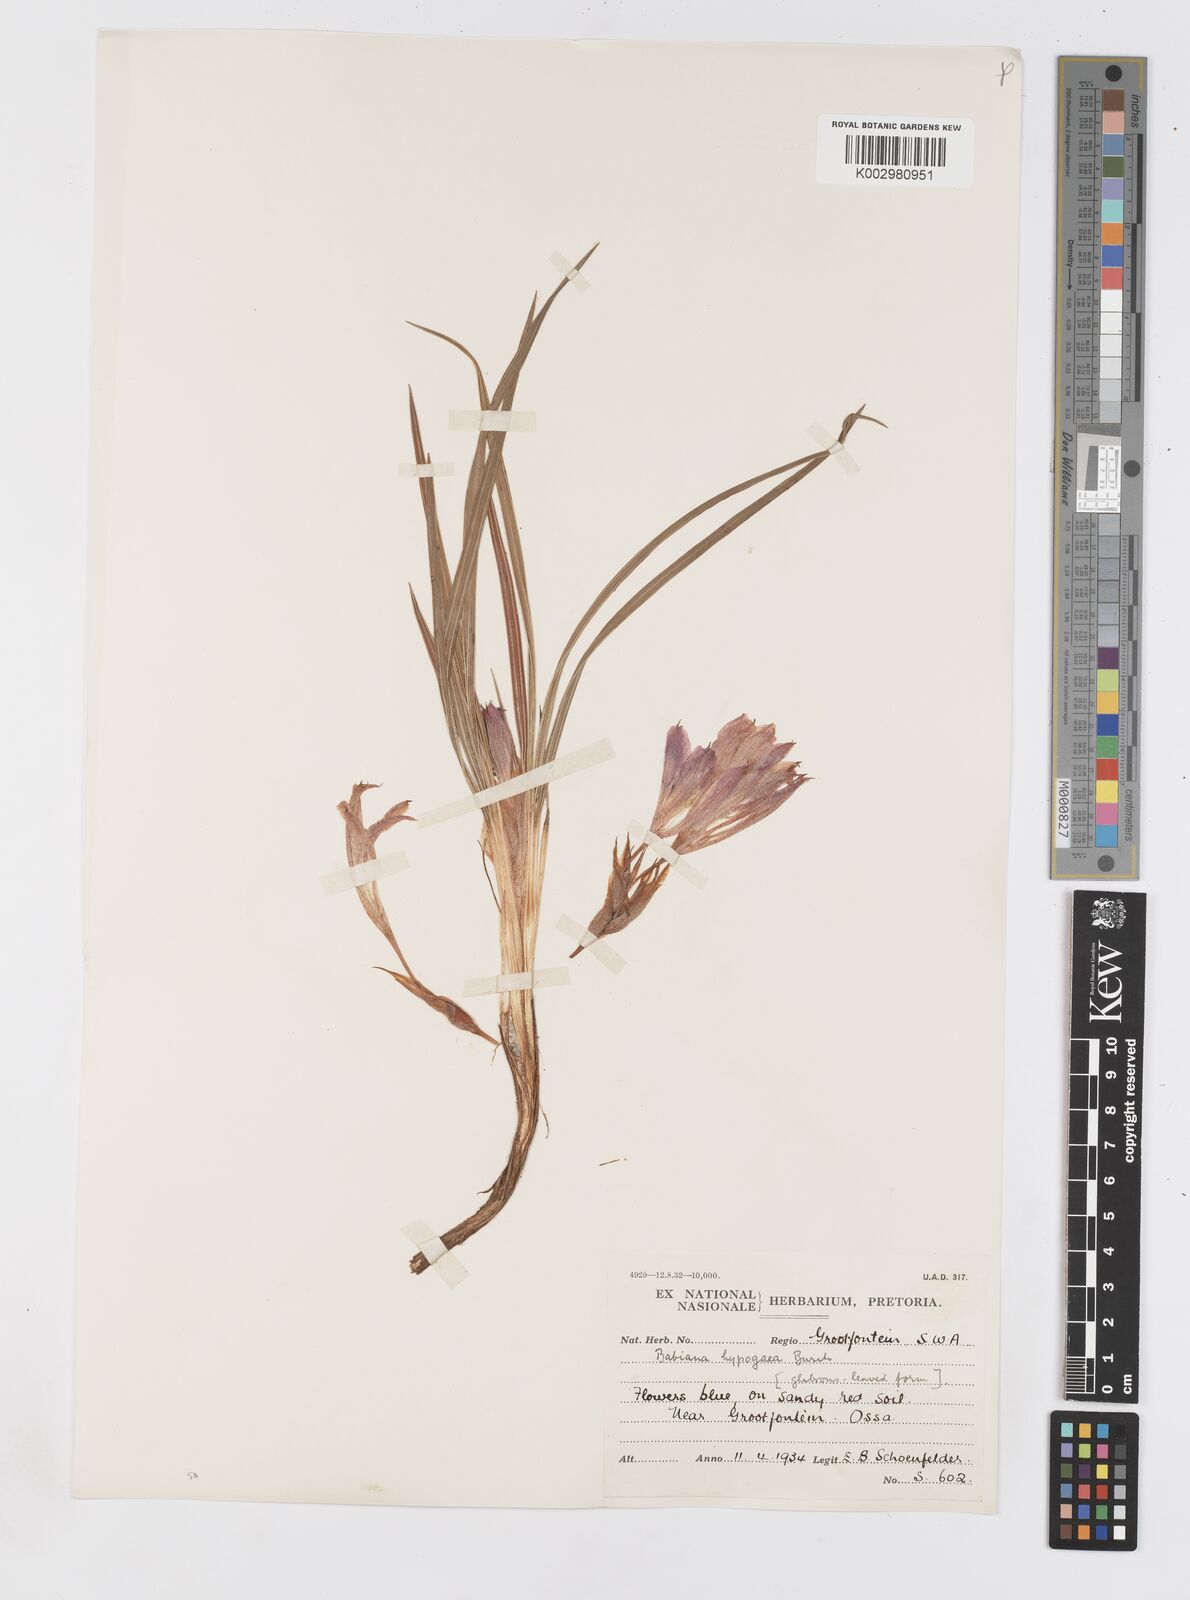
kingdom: Plantae
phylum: Tracheophyta
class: Liliopsida
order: Asparagales
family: Iridaceae
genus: Babiana
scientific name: Babiana bainesii
